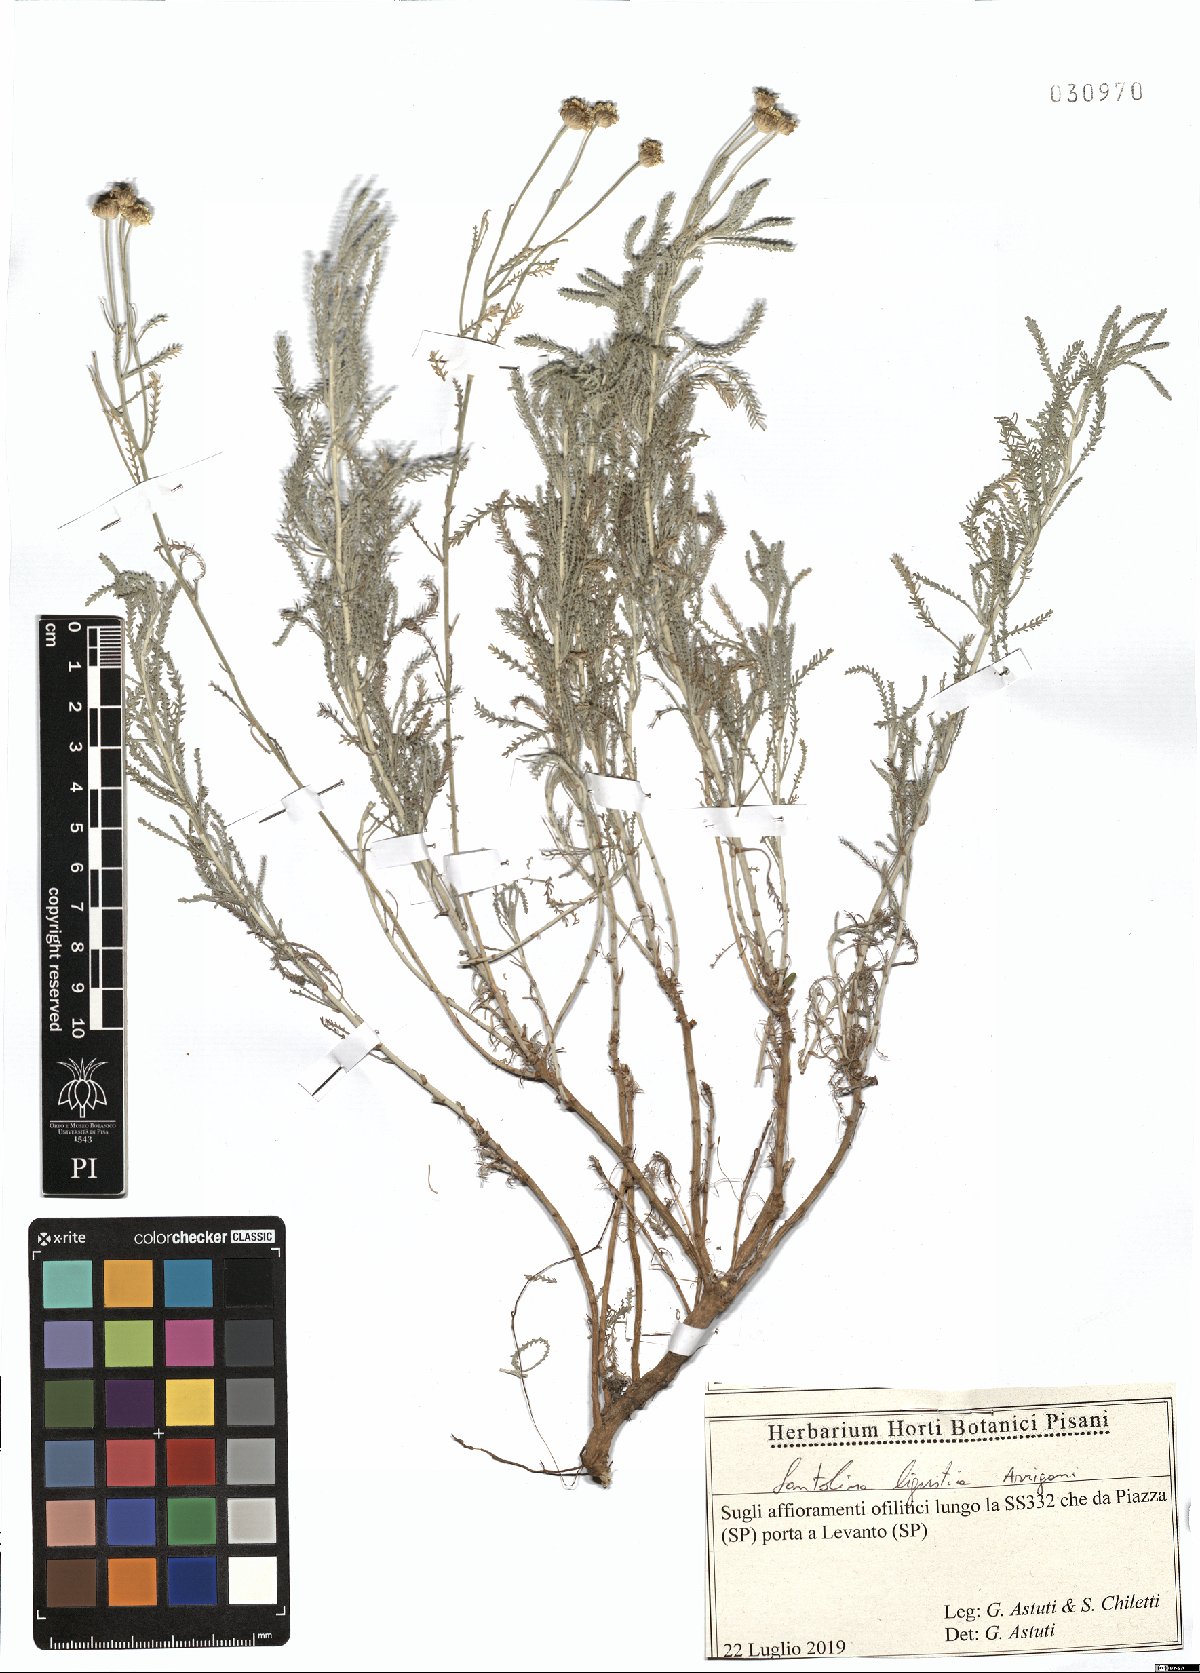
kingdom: Plantae
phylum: Tracheophyta
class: Magnoliopsida
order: Asterales
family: Asteraceae
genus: Santolina
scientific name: Santolina ligustica
